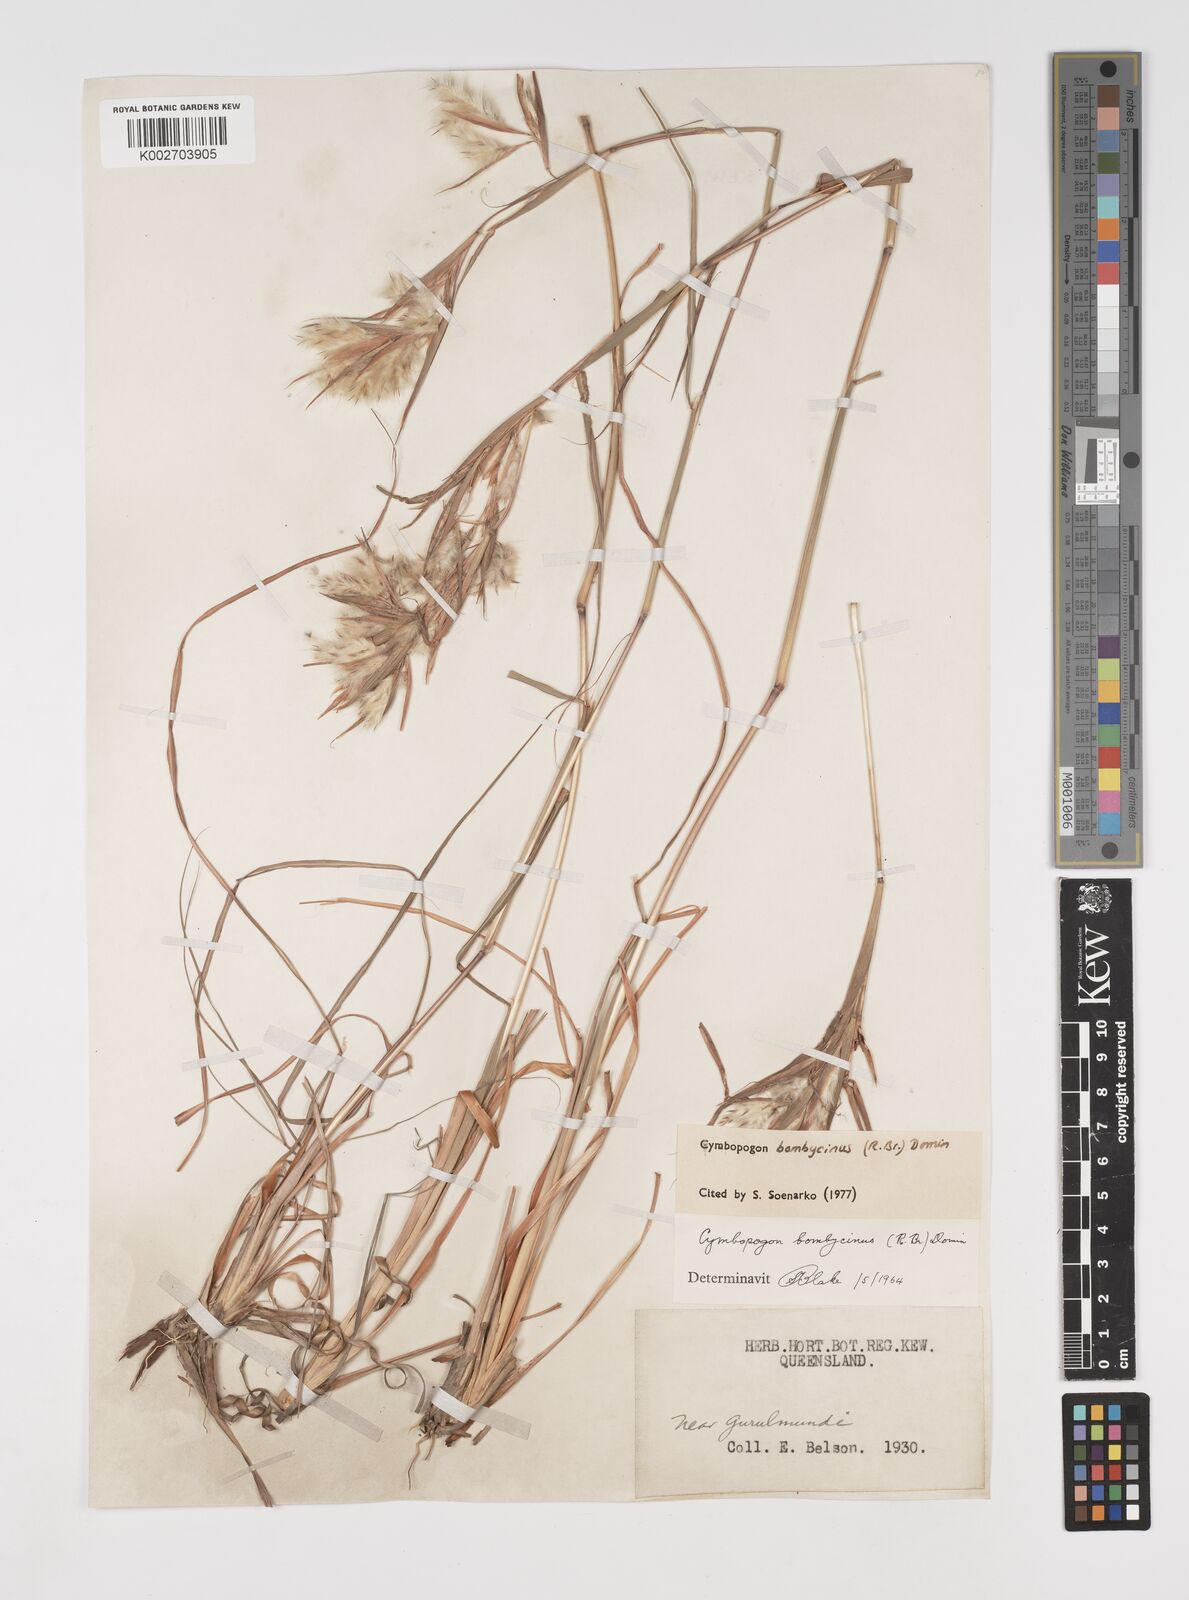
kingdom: Plantae
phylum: Tracheophyta
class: Liliopsida
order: Poales
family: Poaceae
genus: Cymbopogon
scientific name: Cymbopogon bombycinus
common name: Citronella grass
